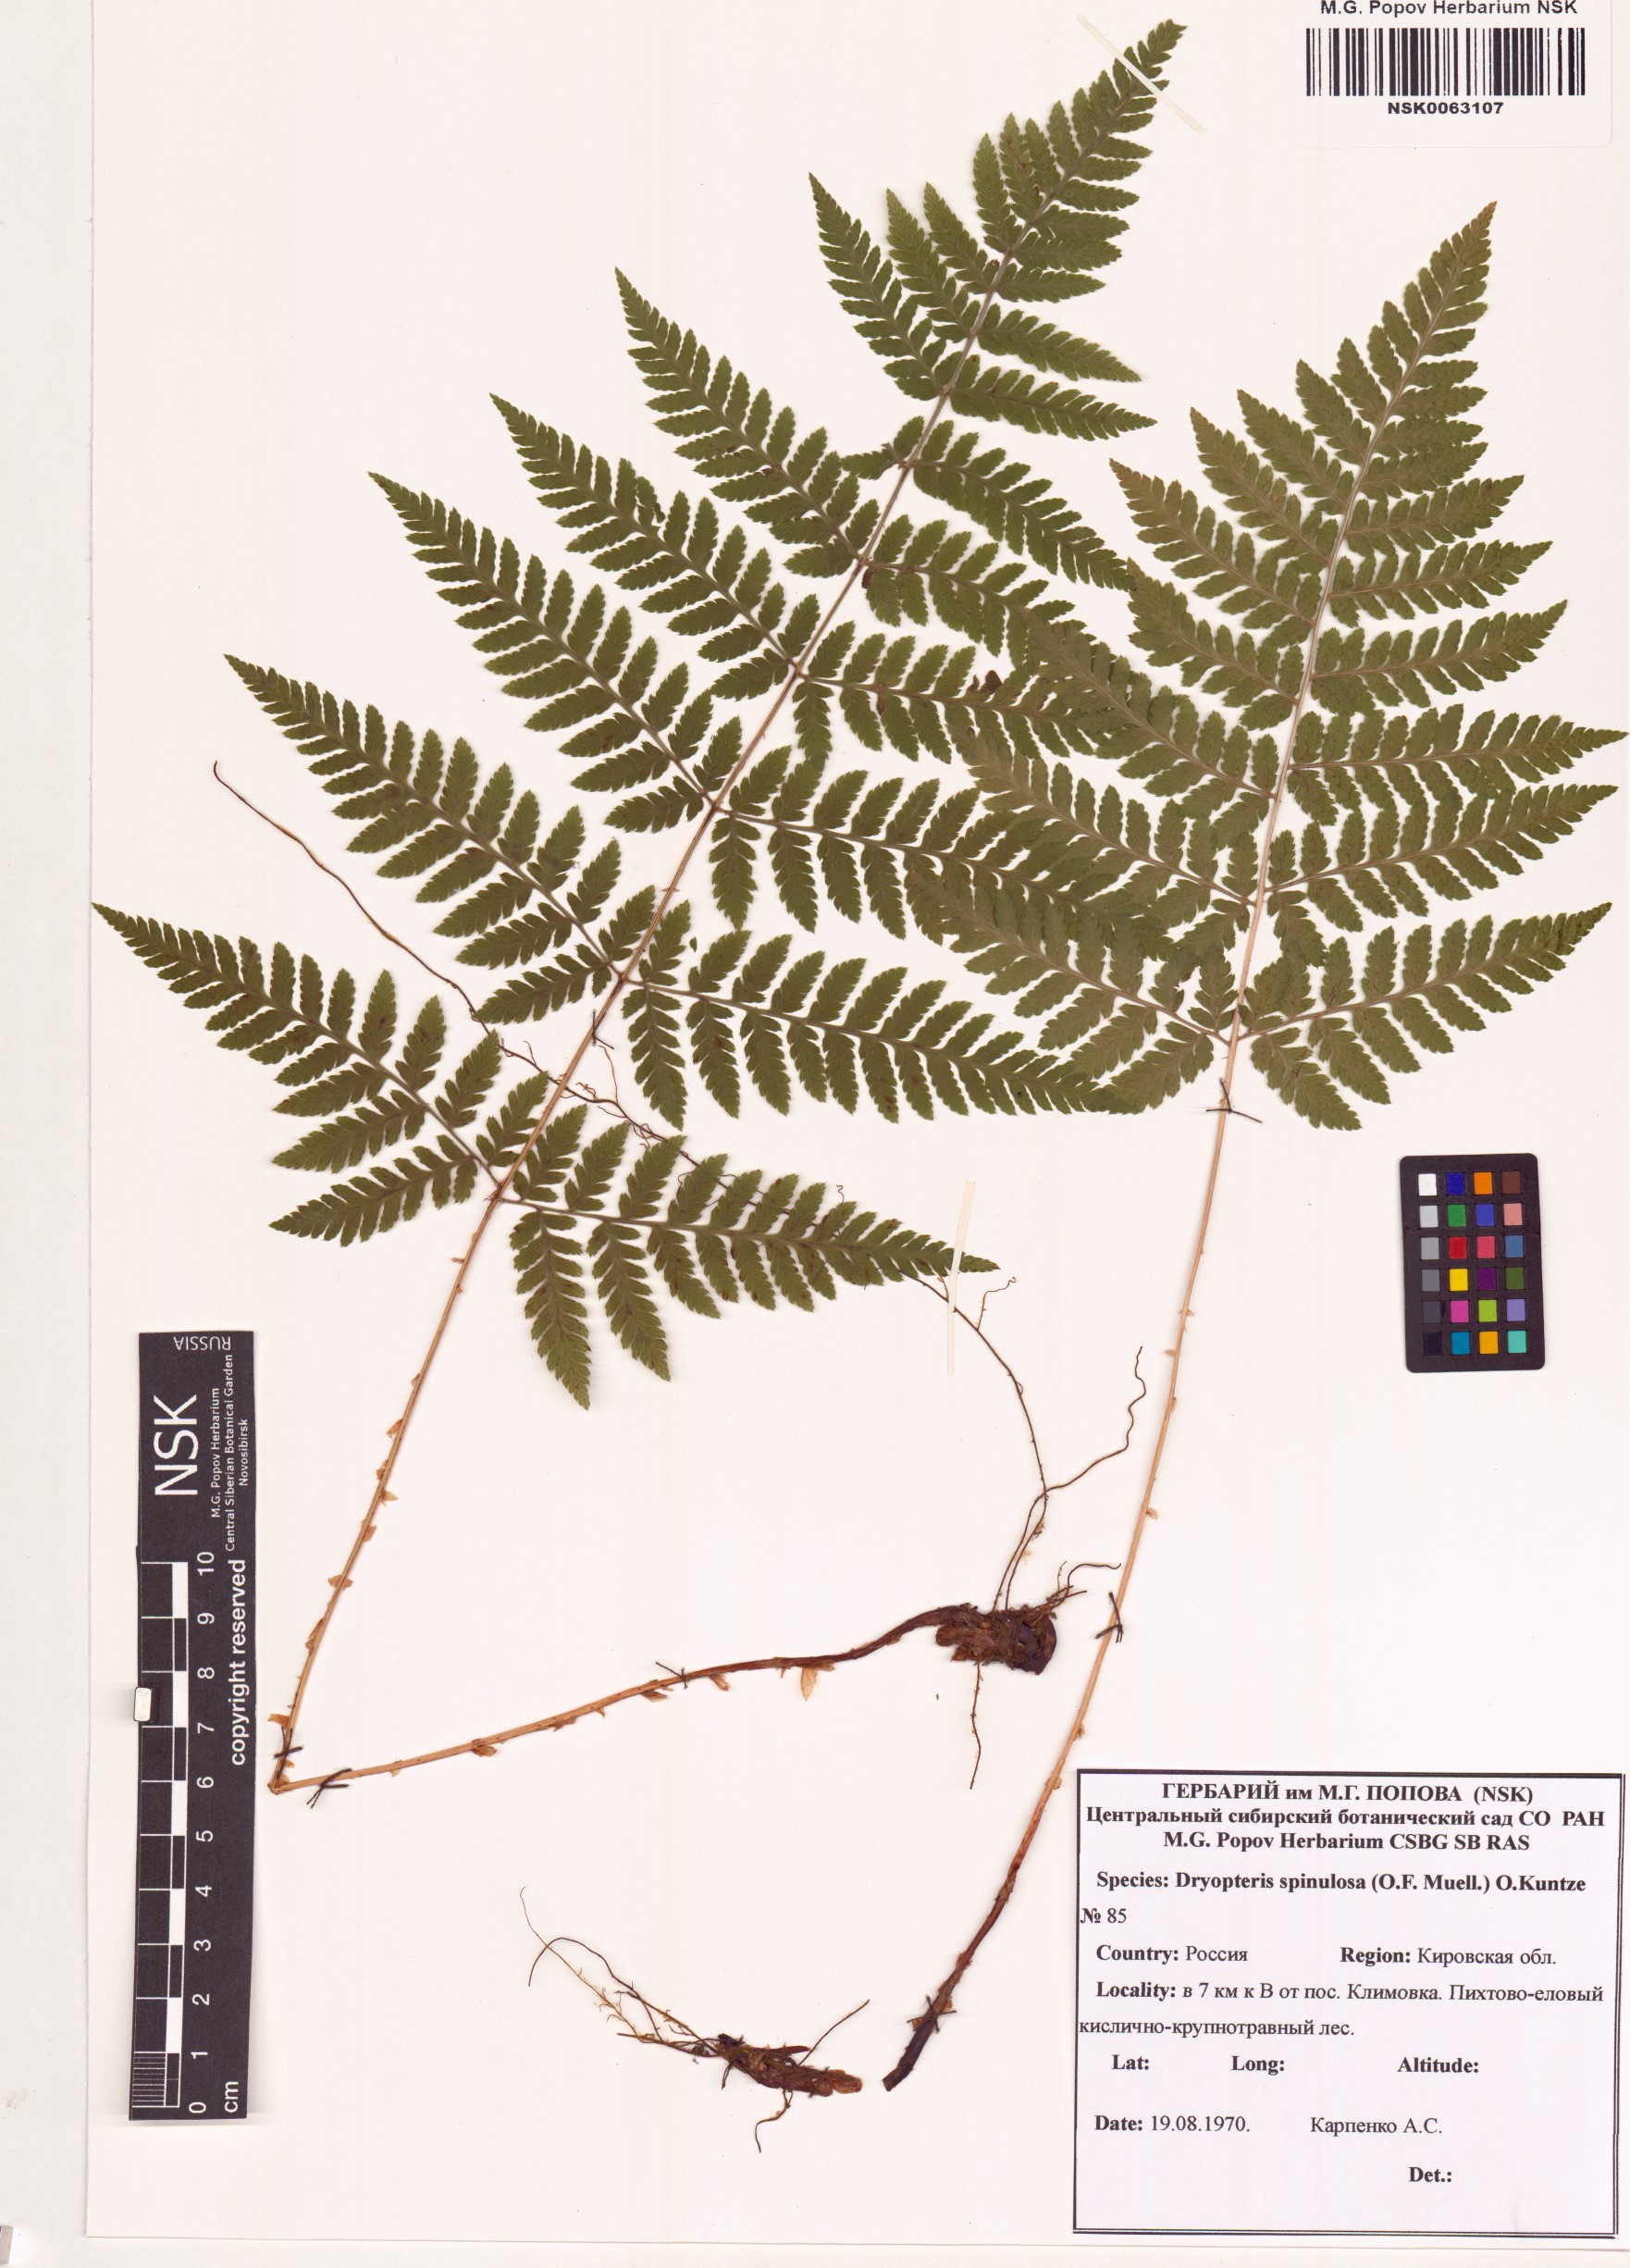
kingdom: Plantae
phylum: Tracheophyta
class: Polypodiopsida
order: Polypodiales
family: Dryopteridaceae
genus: Dryopteris
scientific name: Dryopteris carthusiana
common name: Narrow buckler-fern
